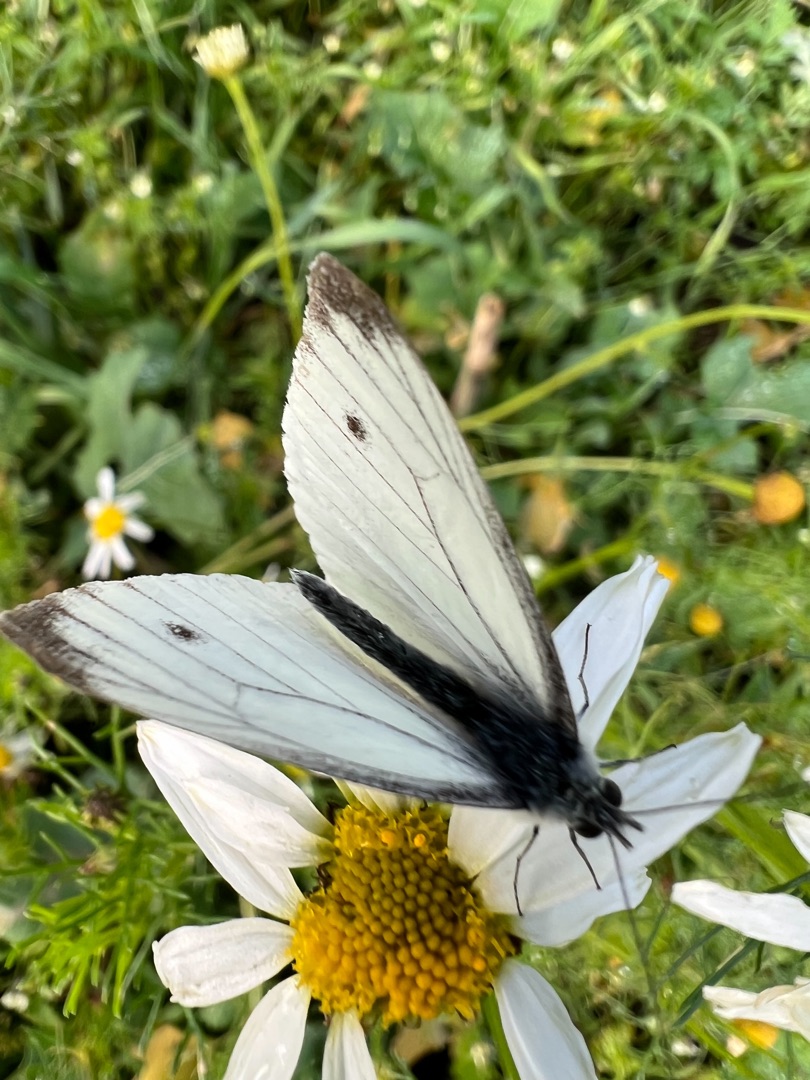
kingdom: Animalia
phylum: Arthropoda
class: Insecta
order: Lepidoptera
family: Pieridae
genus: Pieris
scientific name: Pieris napi
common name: Grønåret kålsommerfugl
